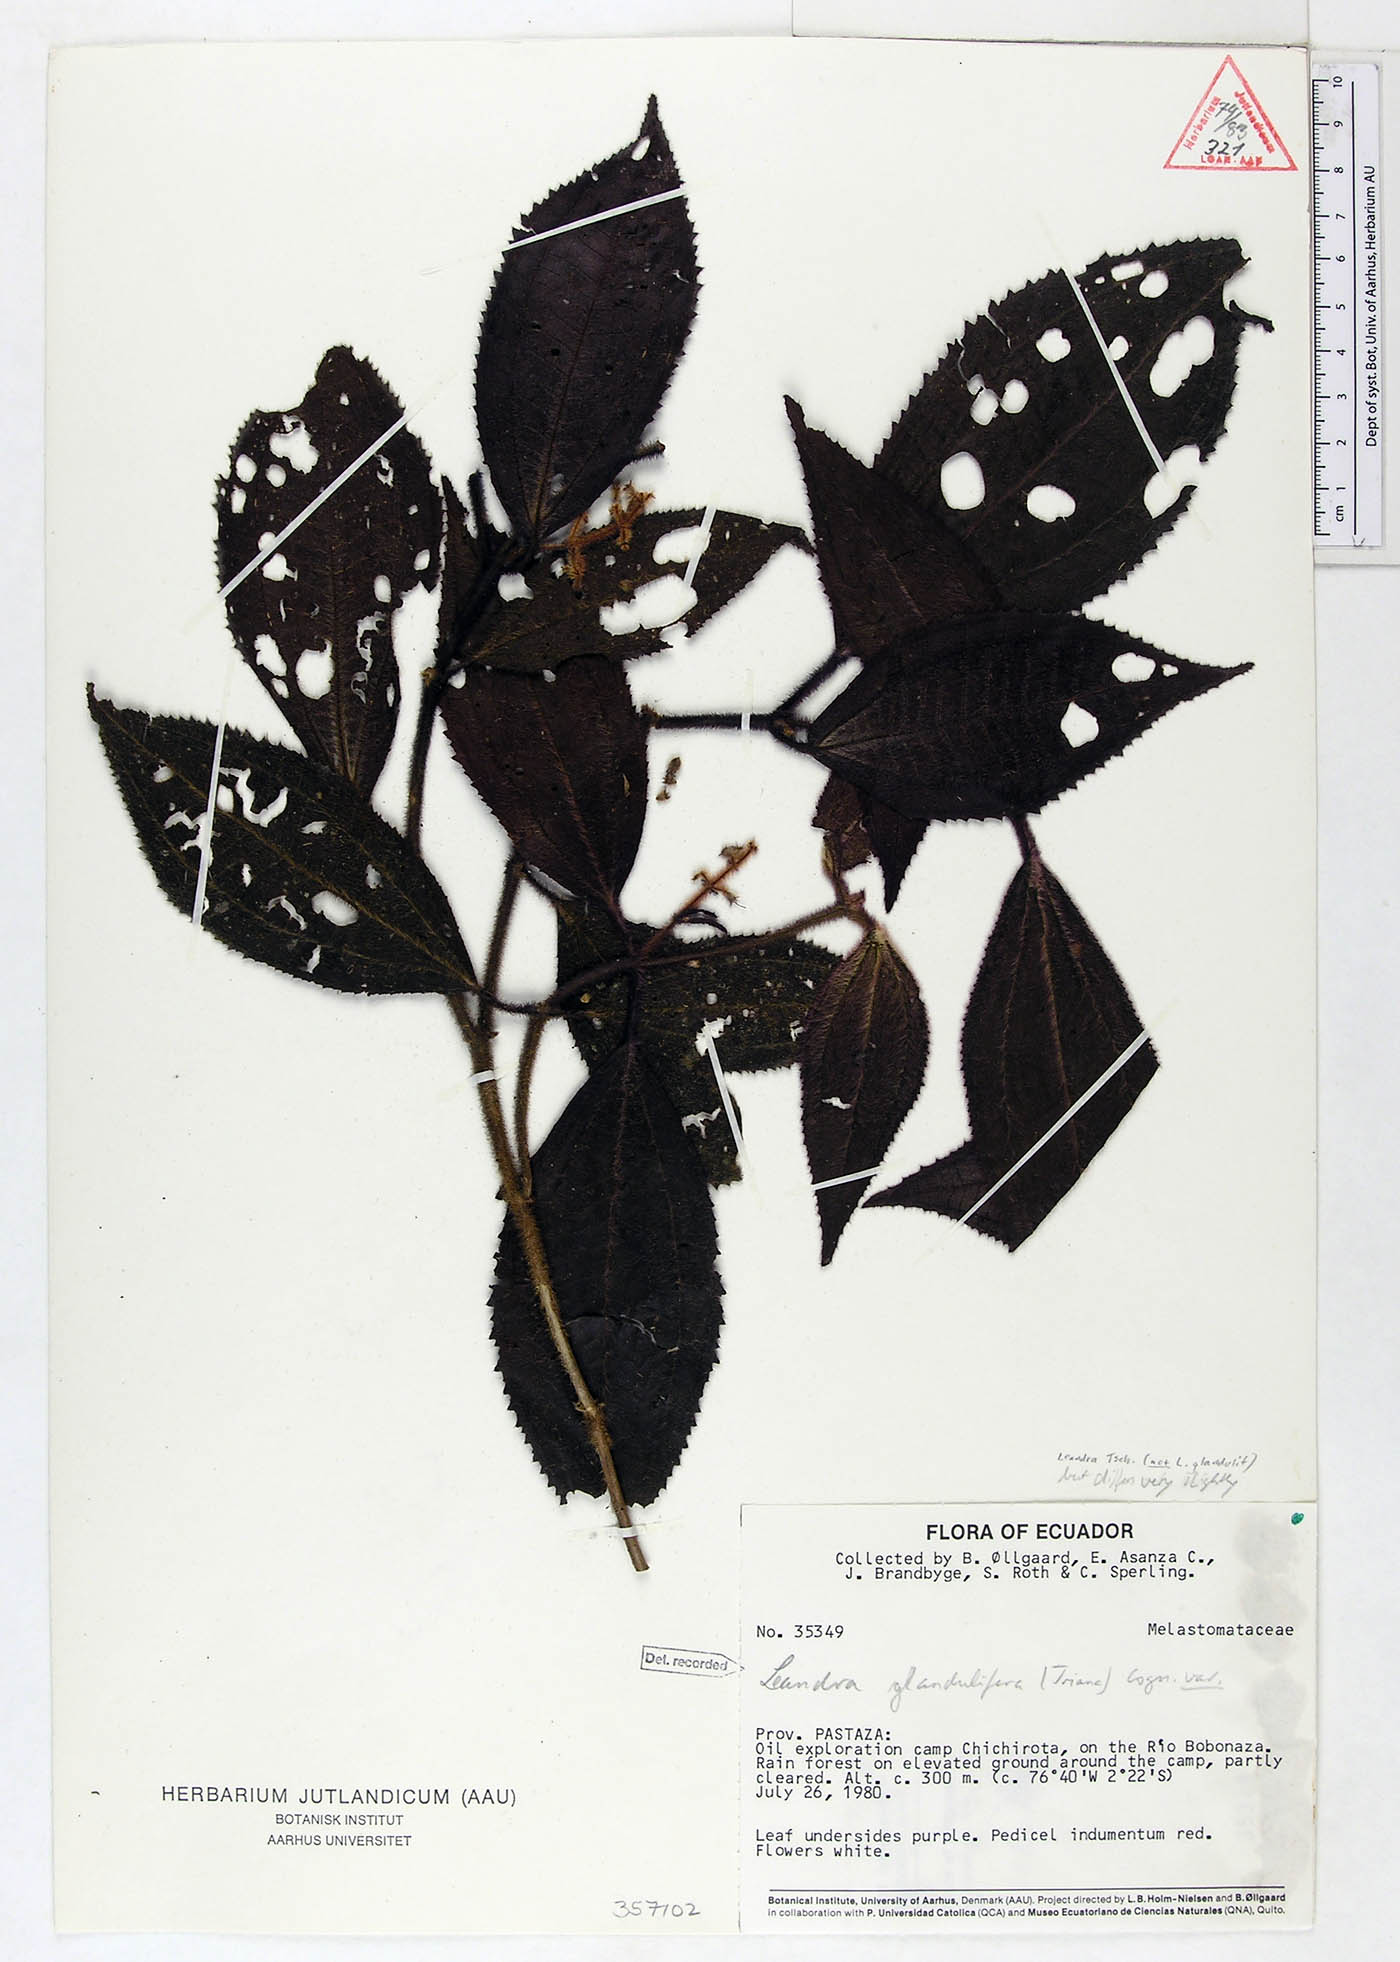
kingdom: Plantae
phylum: Tracheophyta
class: Magnoliopsida
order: Myrtales
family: Melastomataceae
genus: Miconia
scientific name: Miconia glanduliflora
